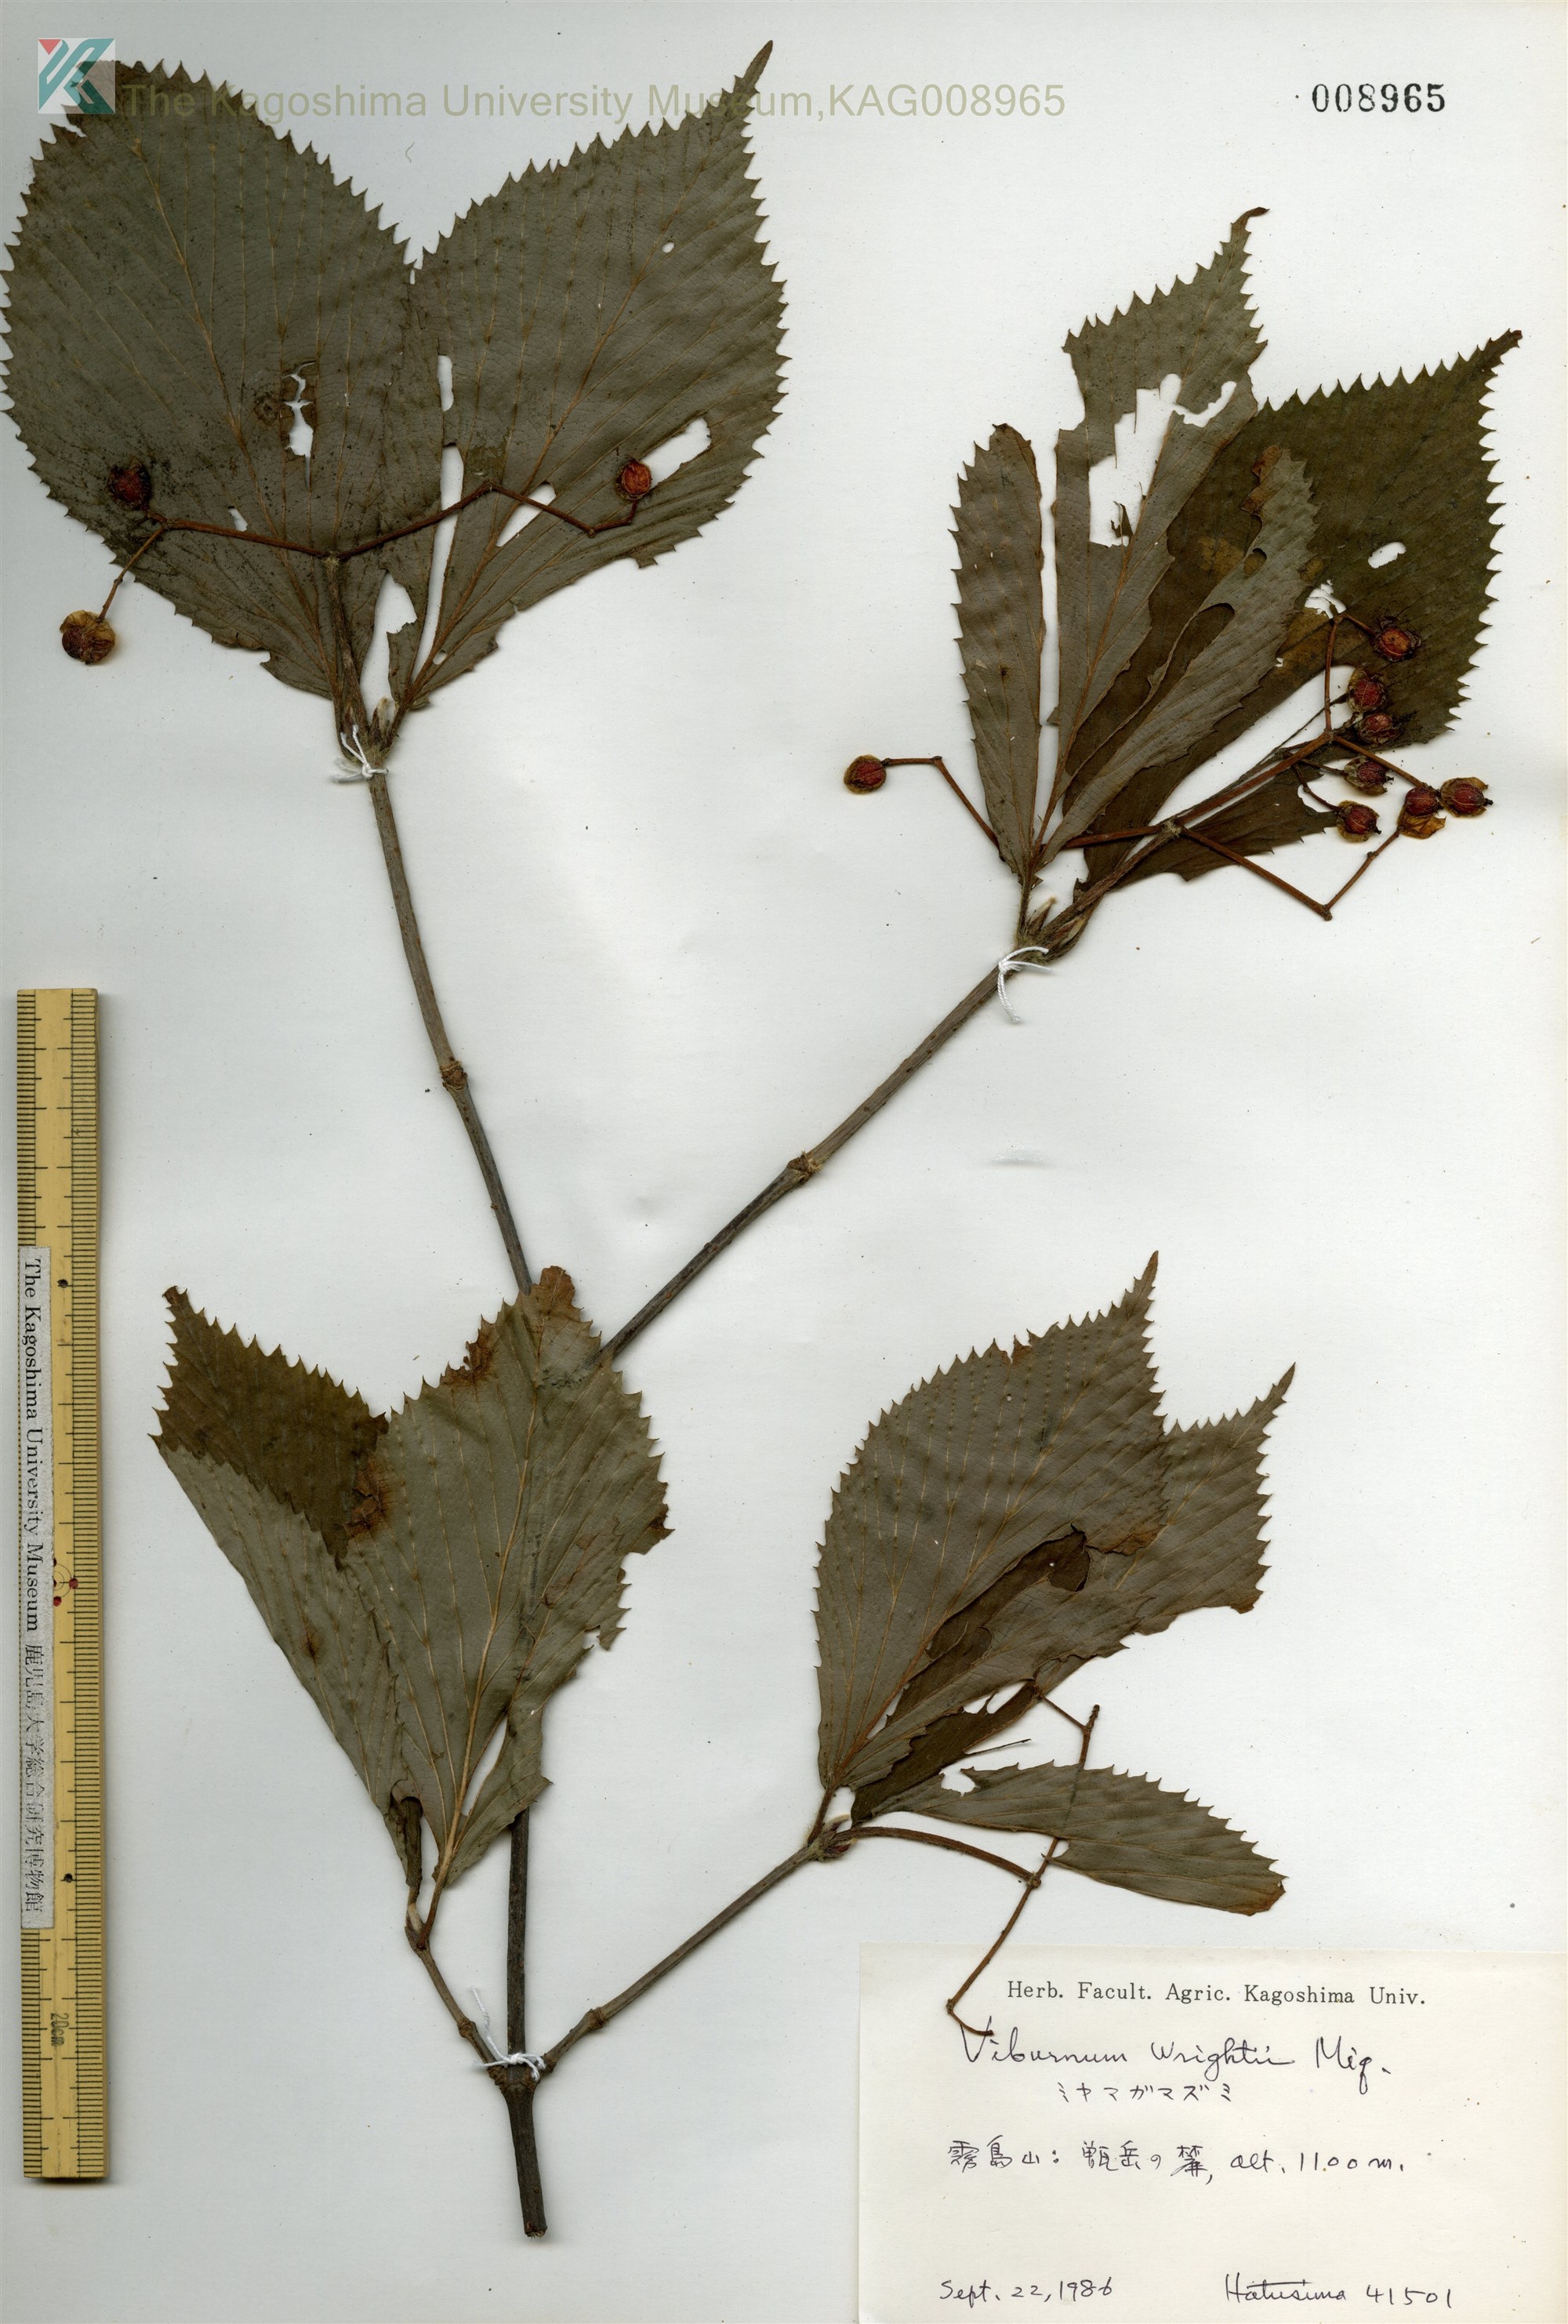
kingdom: Plantae
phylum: Tracheophyta
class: Magnoliopsida
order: Dipsacales
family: Viburnaceae
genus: Viburnum
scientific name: Viburnum wrightii
